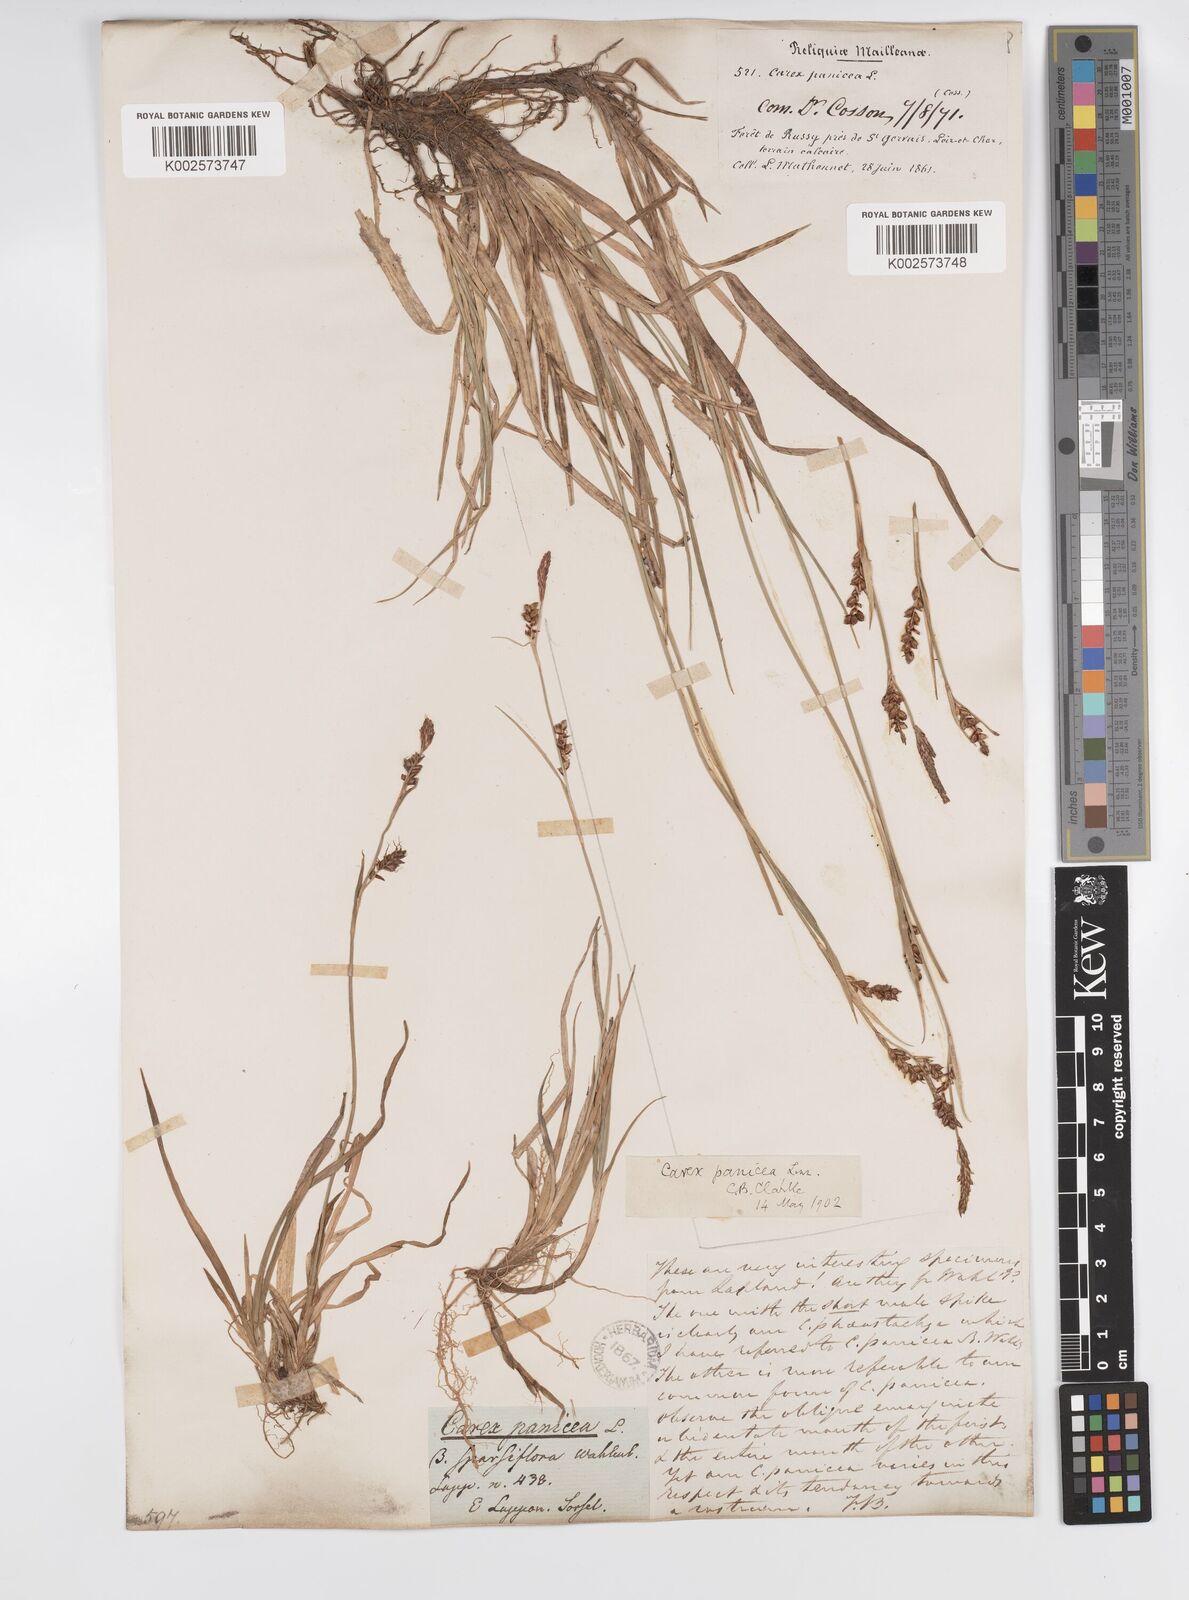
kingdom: Plantae
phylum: Tracheophyta
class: Liliopsida
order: Poales
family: Cyperaceae
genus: Carex
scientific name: Carex panicea
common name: Carnation sedge
